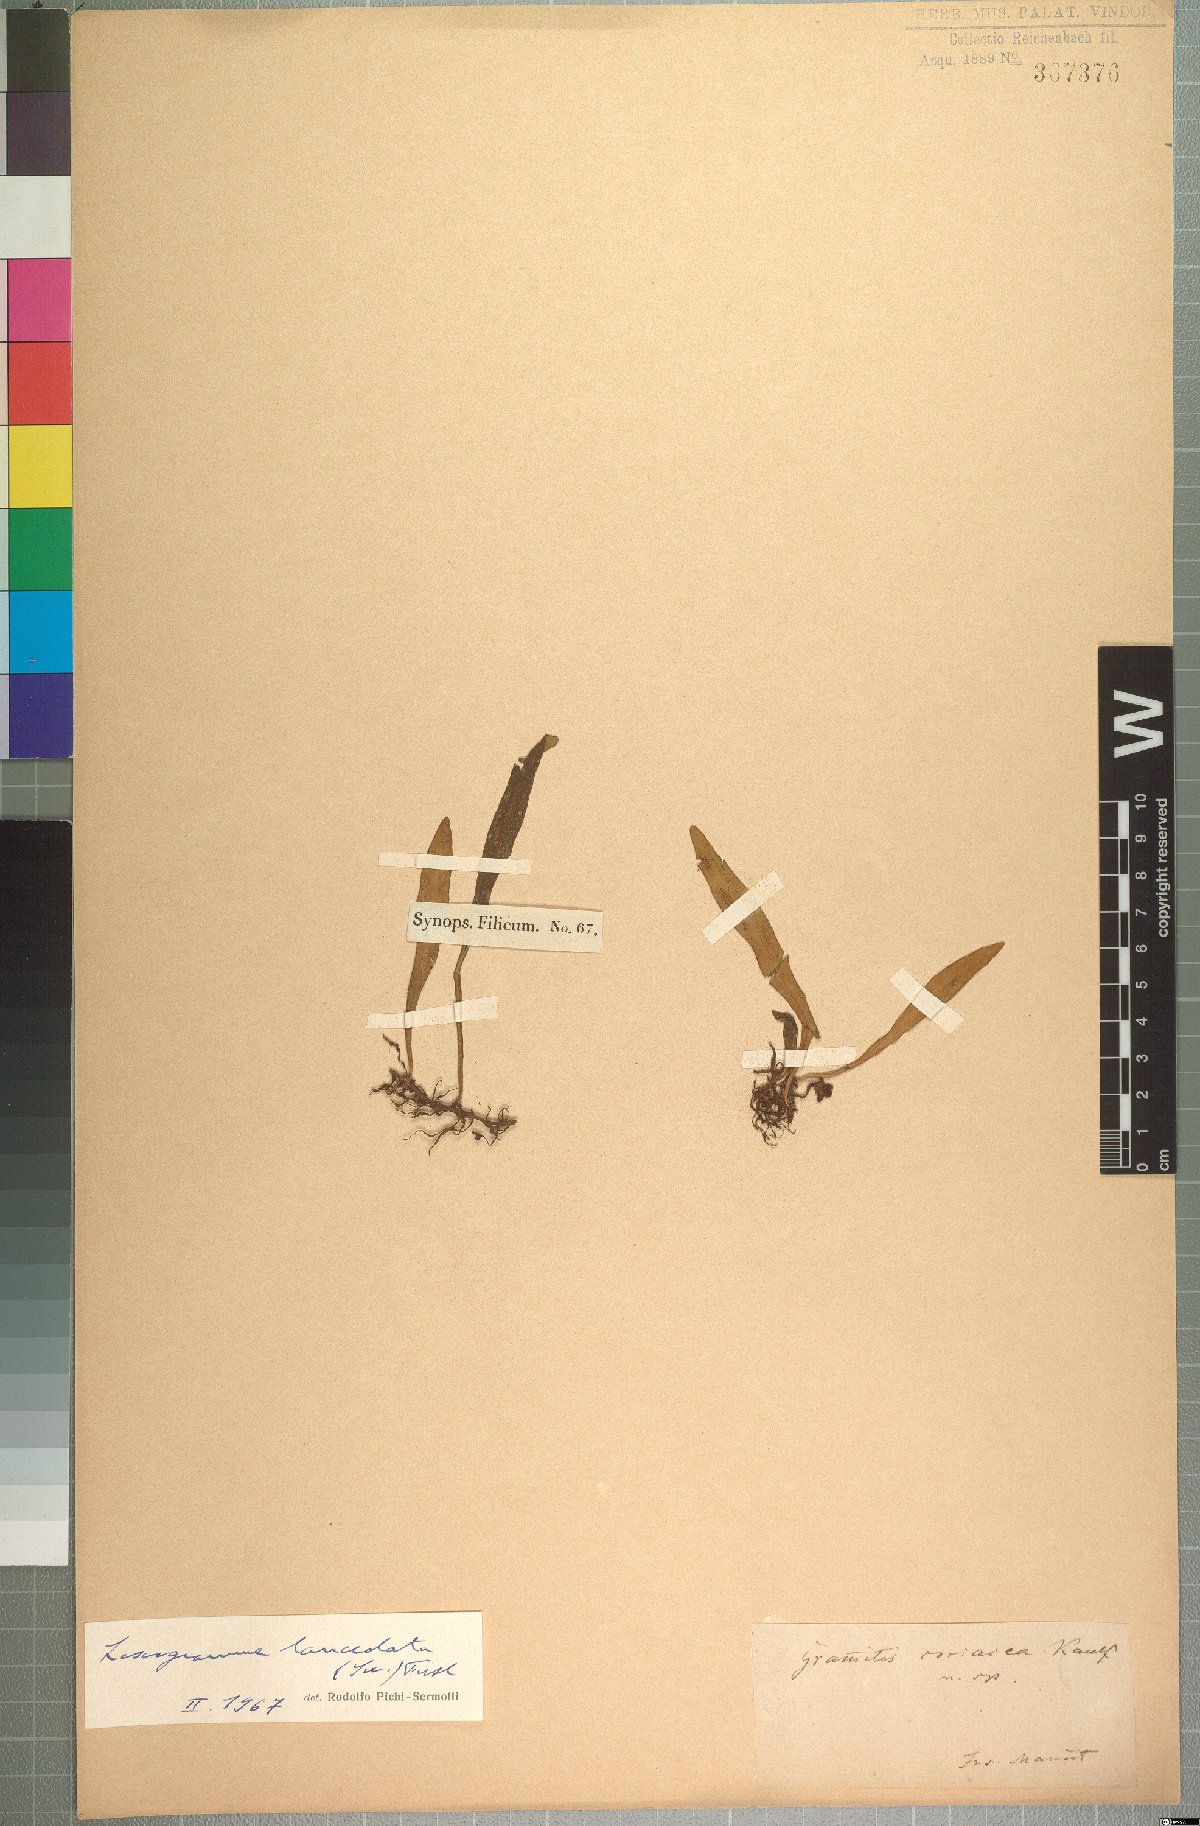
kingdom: Plantae
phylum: Tracheophyta
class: Polypodiopsida
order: Polypodiales
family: Polypodiaceae
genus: Loxogramme
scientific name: Loxogramme lanceolata
